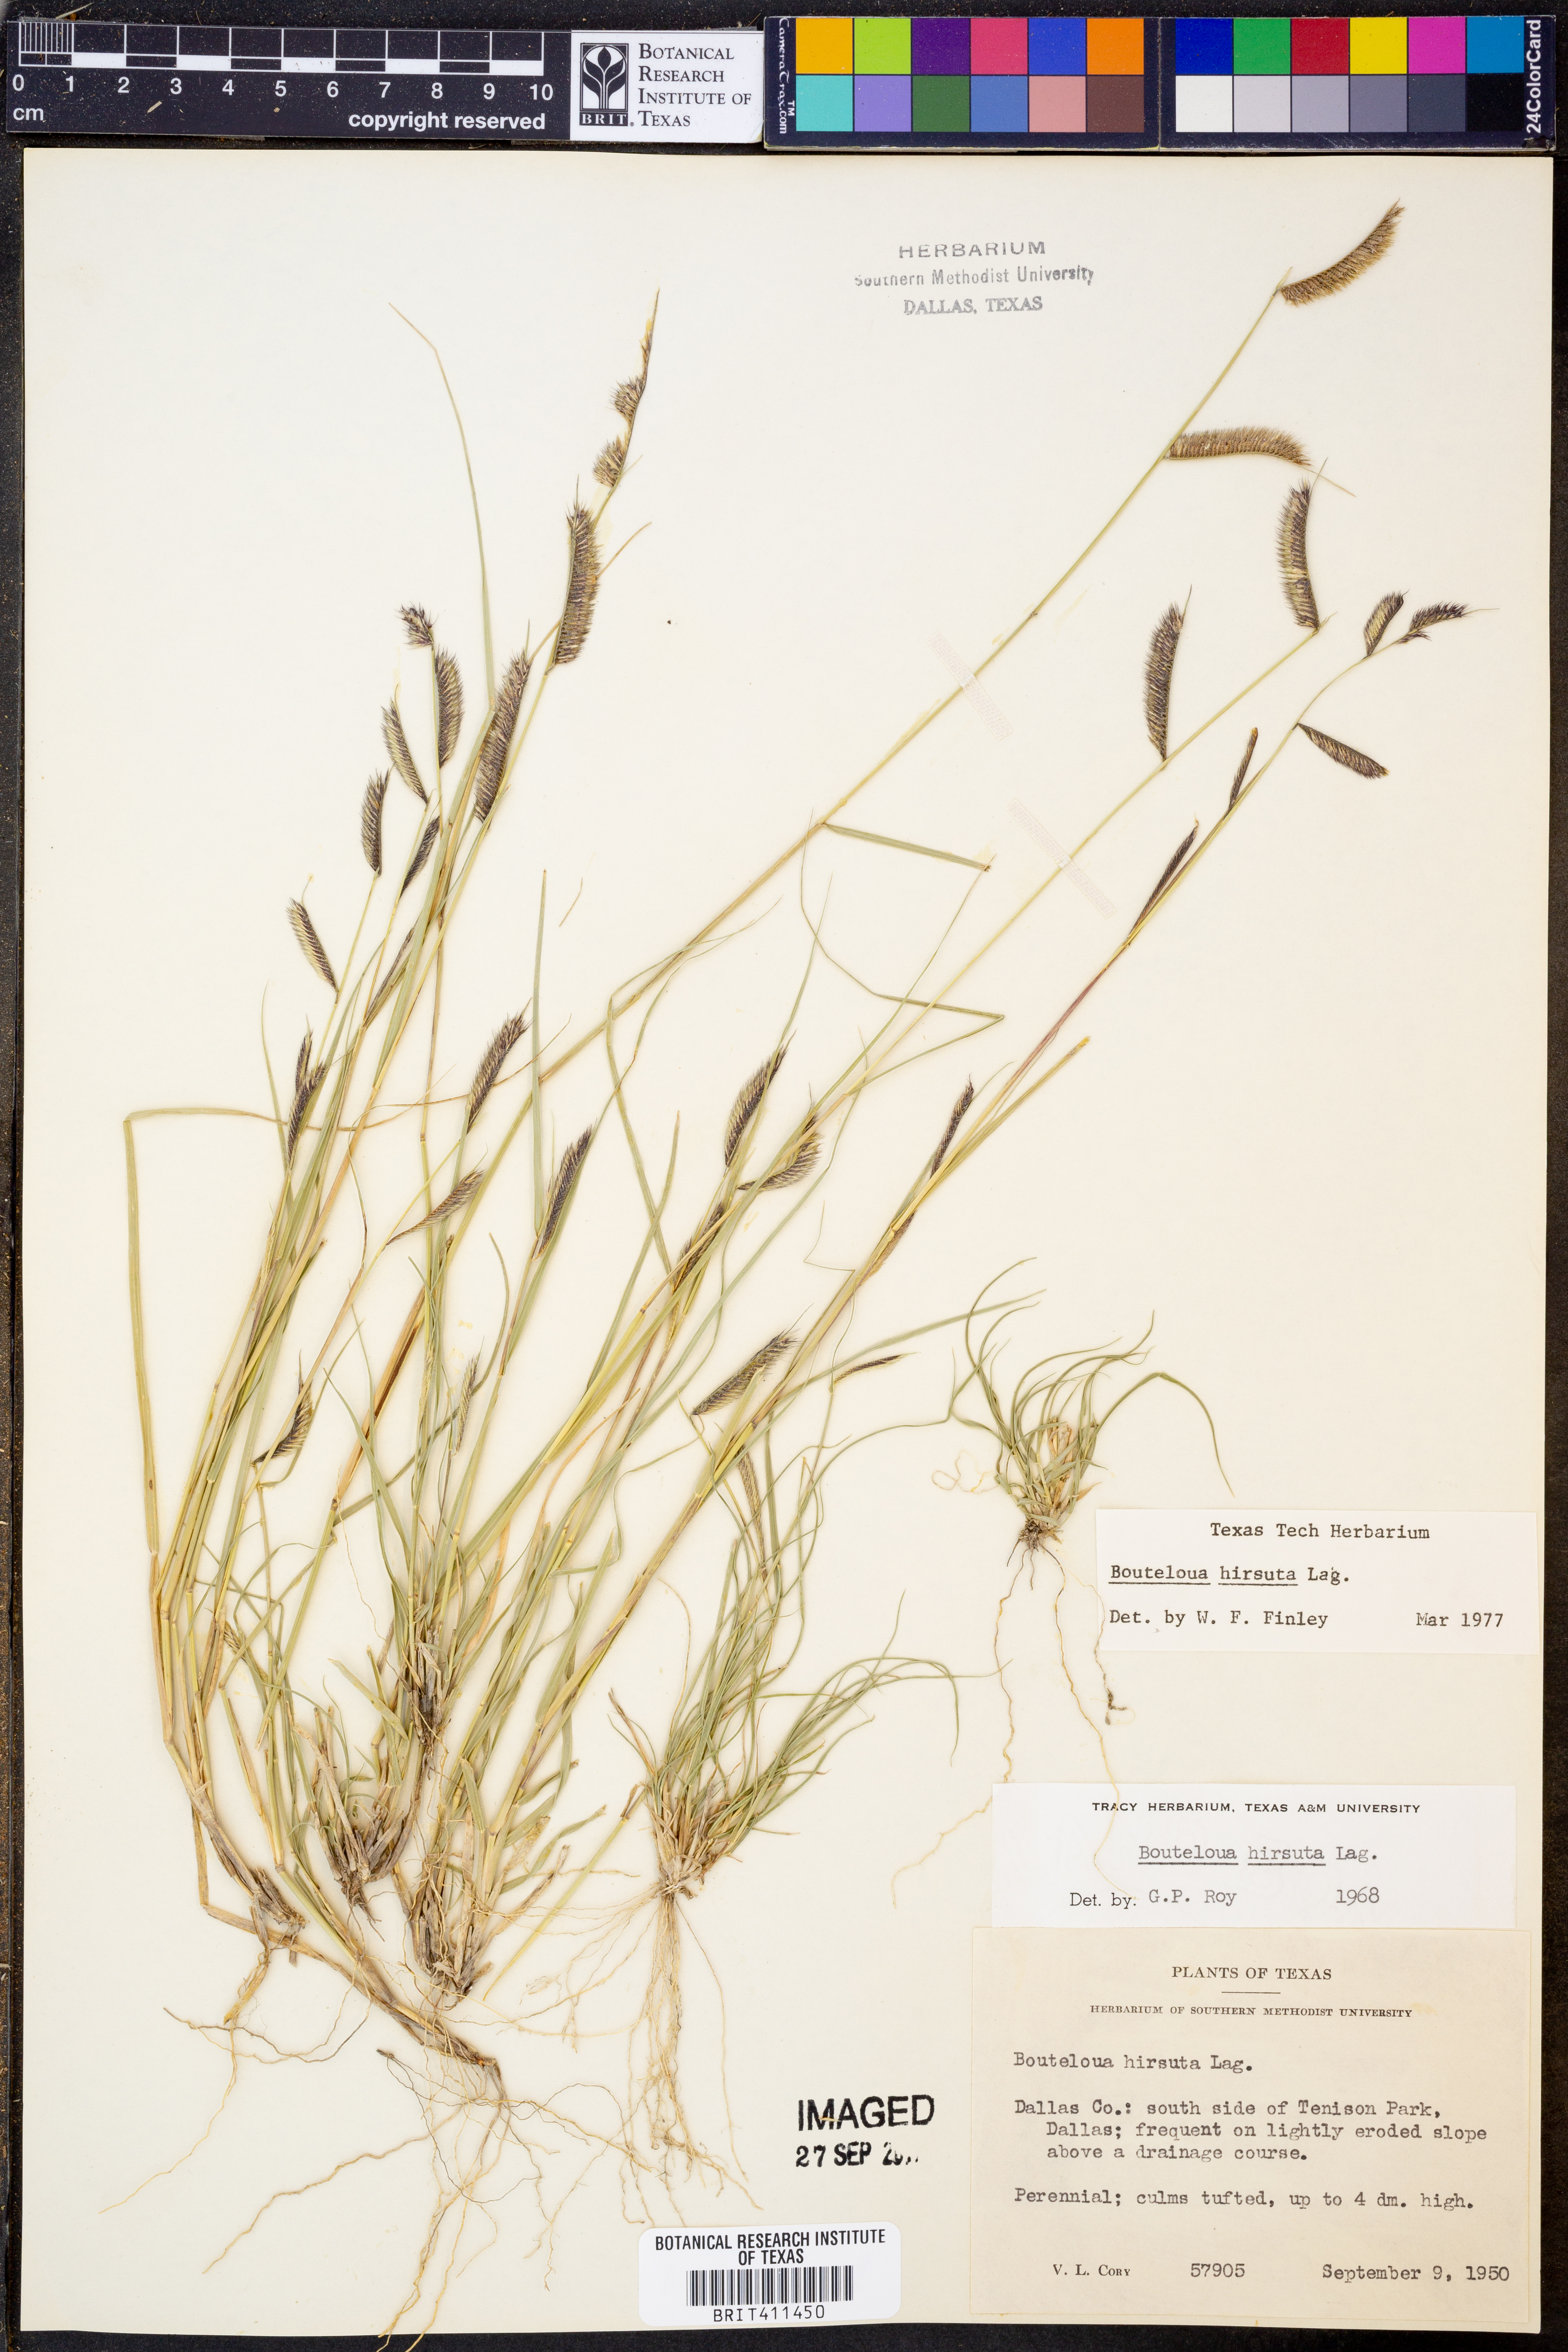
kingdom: Plantae
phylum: Tracheophyta
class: Liliopsida
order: Poales
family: Poaceae
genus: Bouteloua
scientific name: Bouteloua hirsuta
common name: Hairy grama
